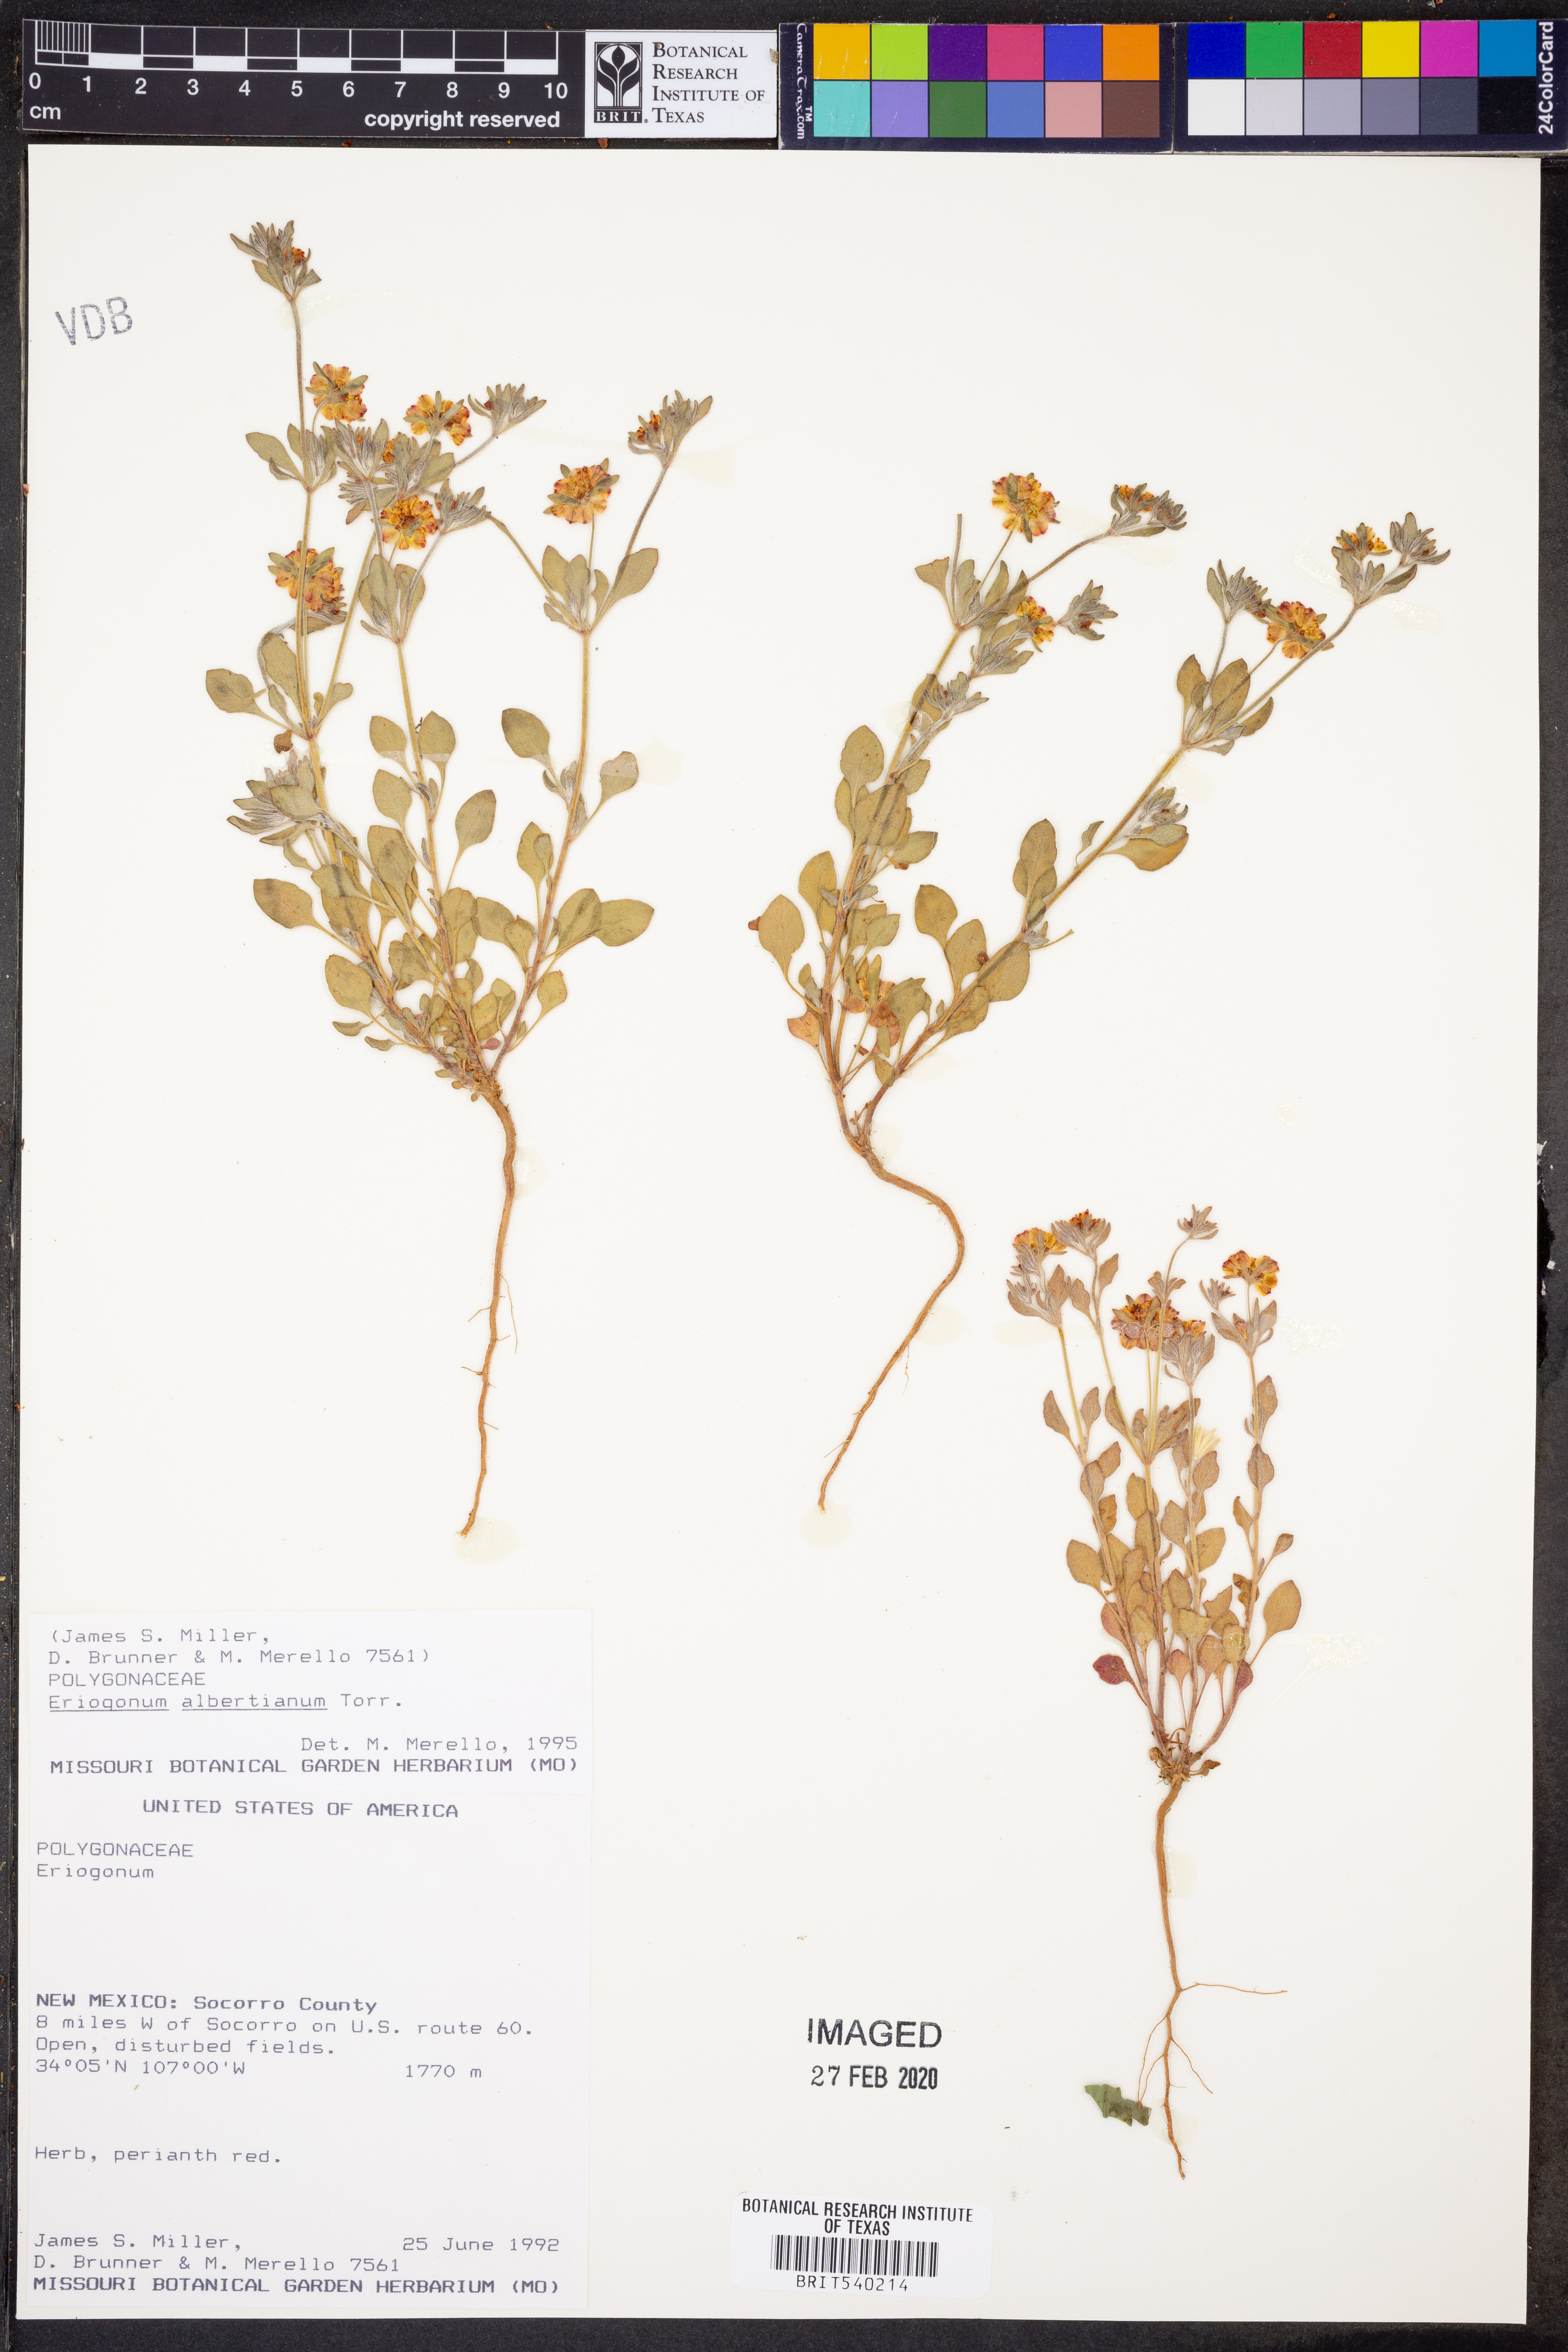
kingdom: Plantae
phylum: Tracheophyta
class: Magnoliopsida
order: Caryophyllales
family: Polygonaceae
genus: Eriogonum
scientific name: Eriogonum albertianum
